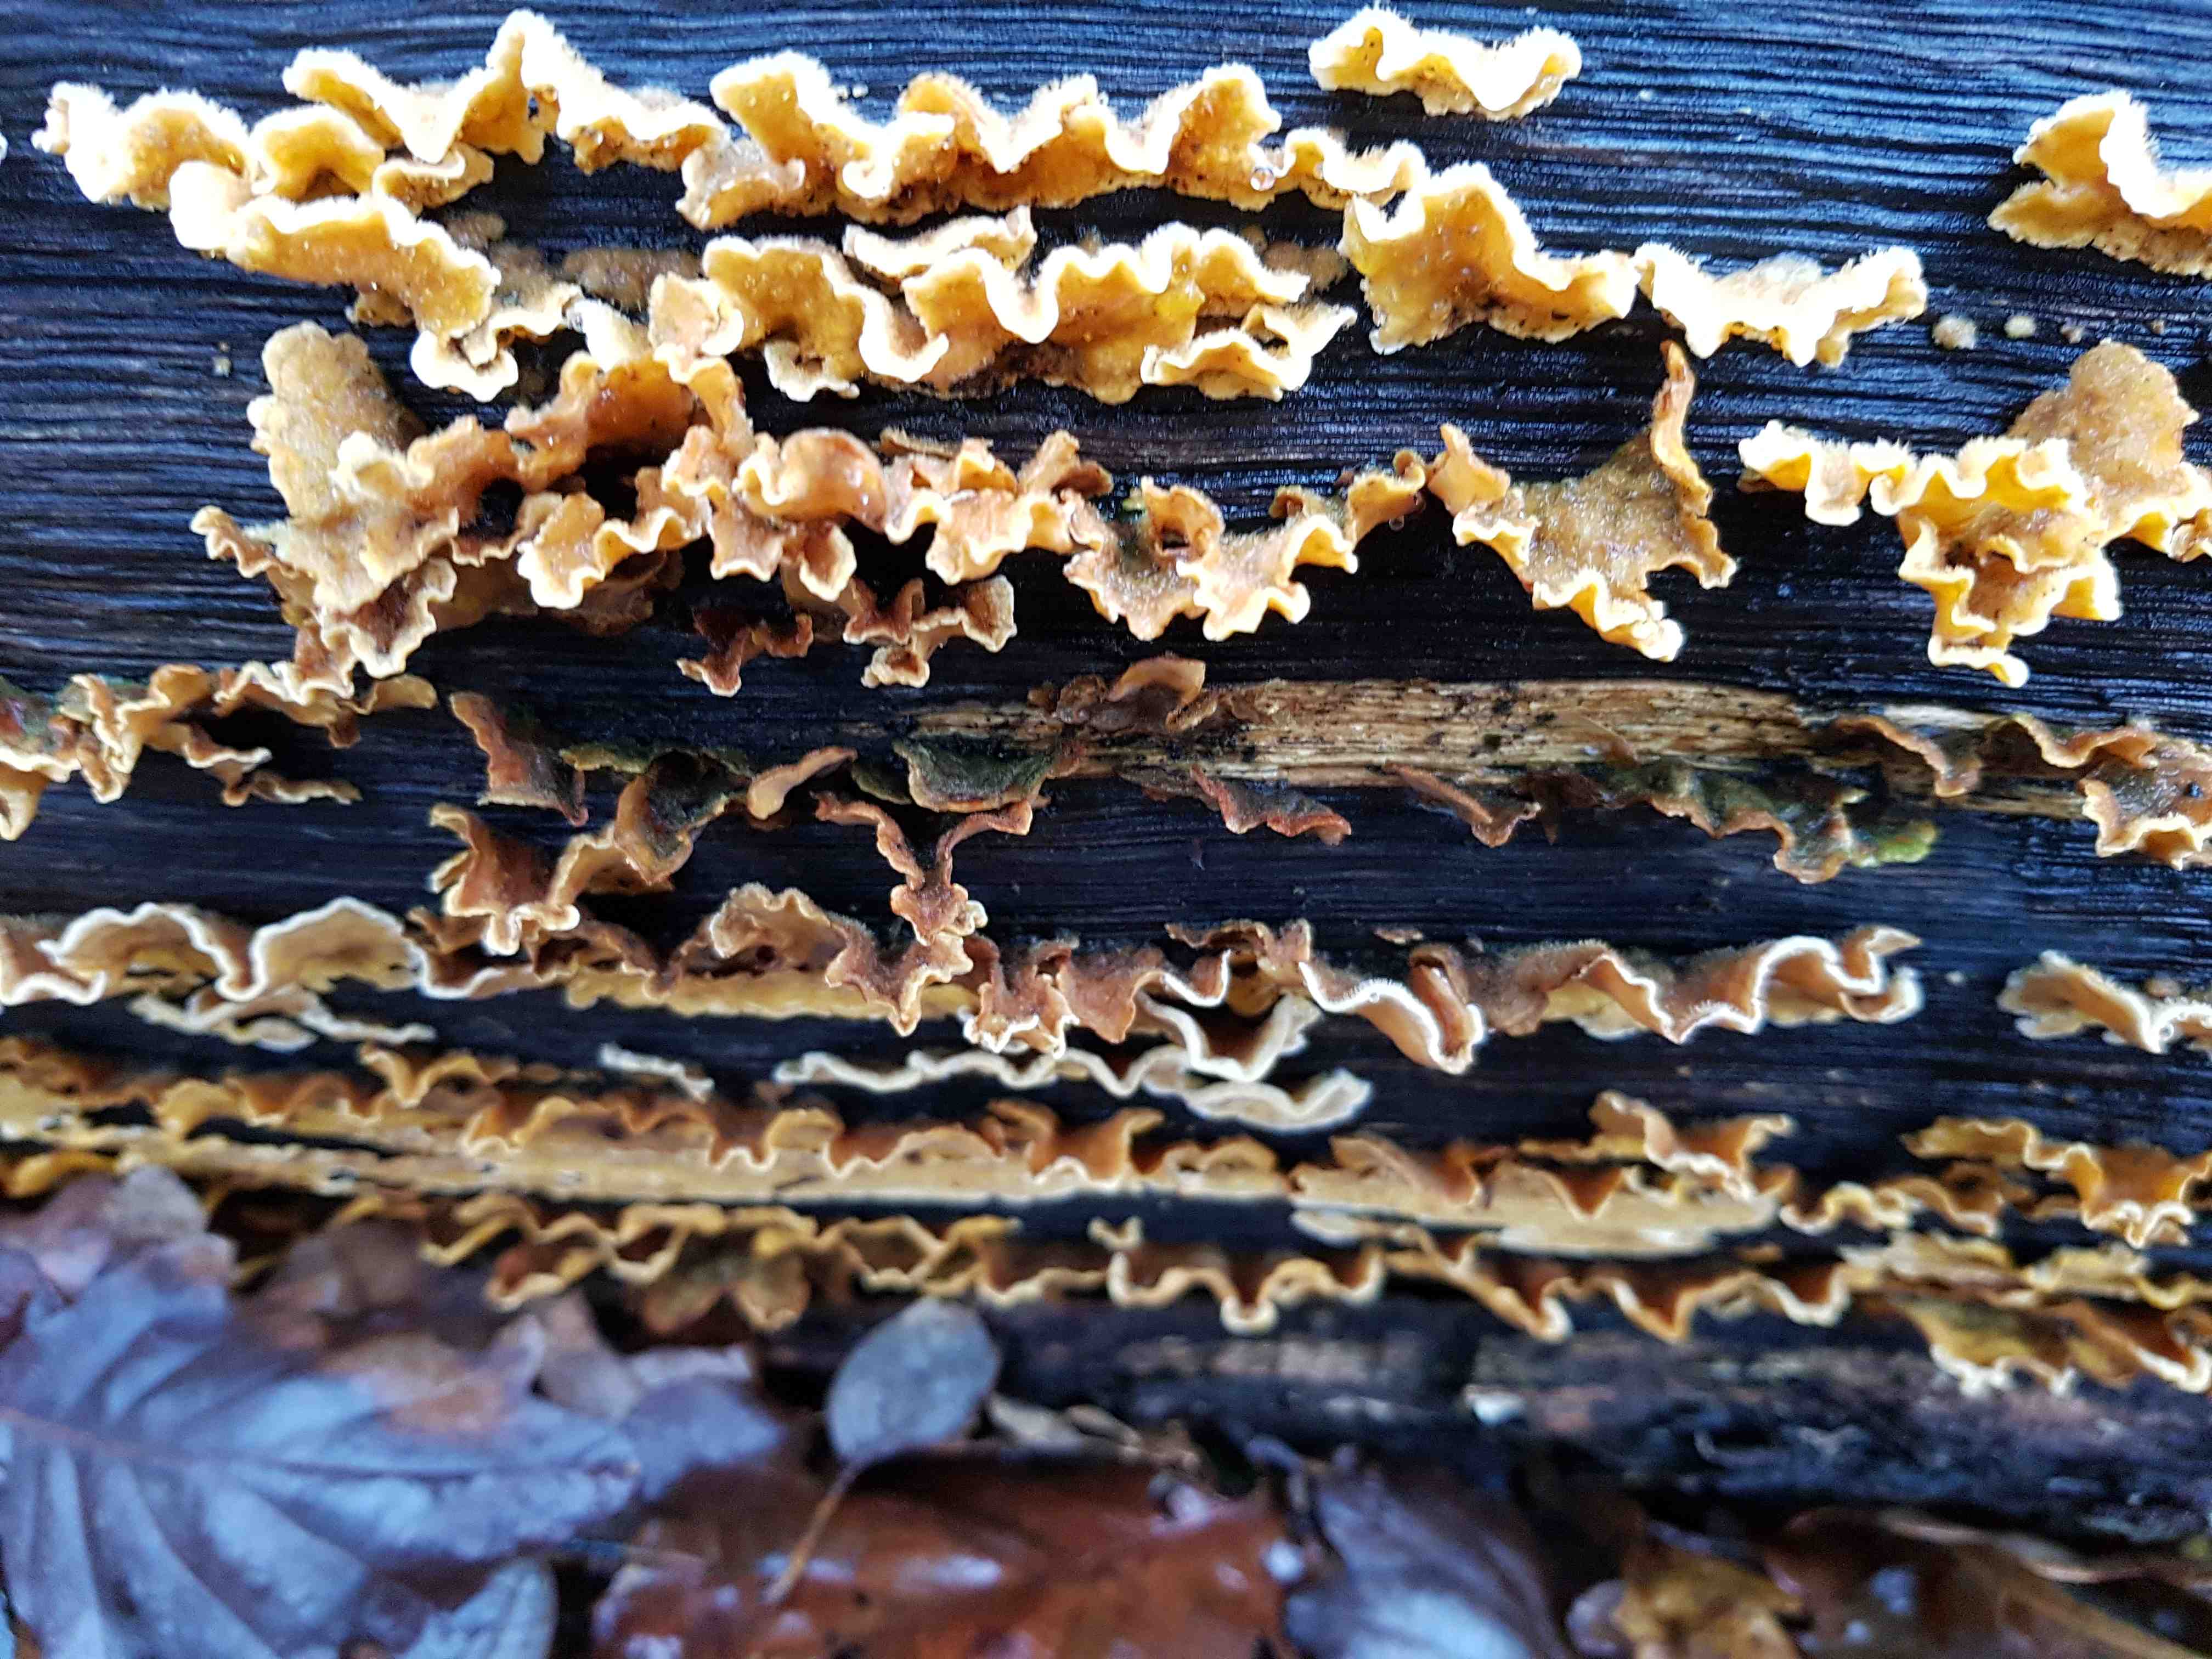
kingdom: Fungi
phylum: Basidiomycota
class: Agaricomycetes
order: Russulales
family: Stereaceae
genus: Stereum
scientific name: Stereum hirsutum
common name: håret lædersvamp
